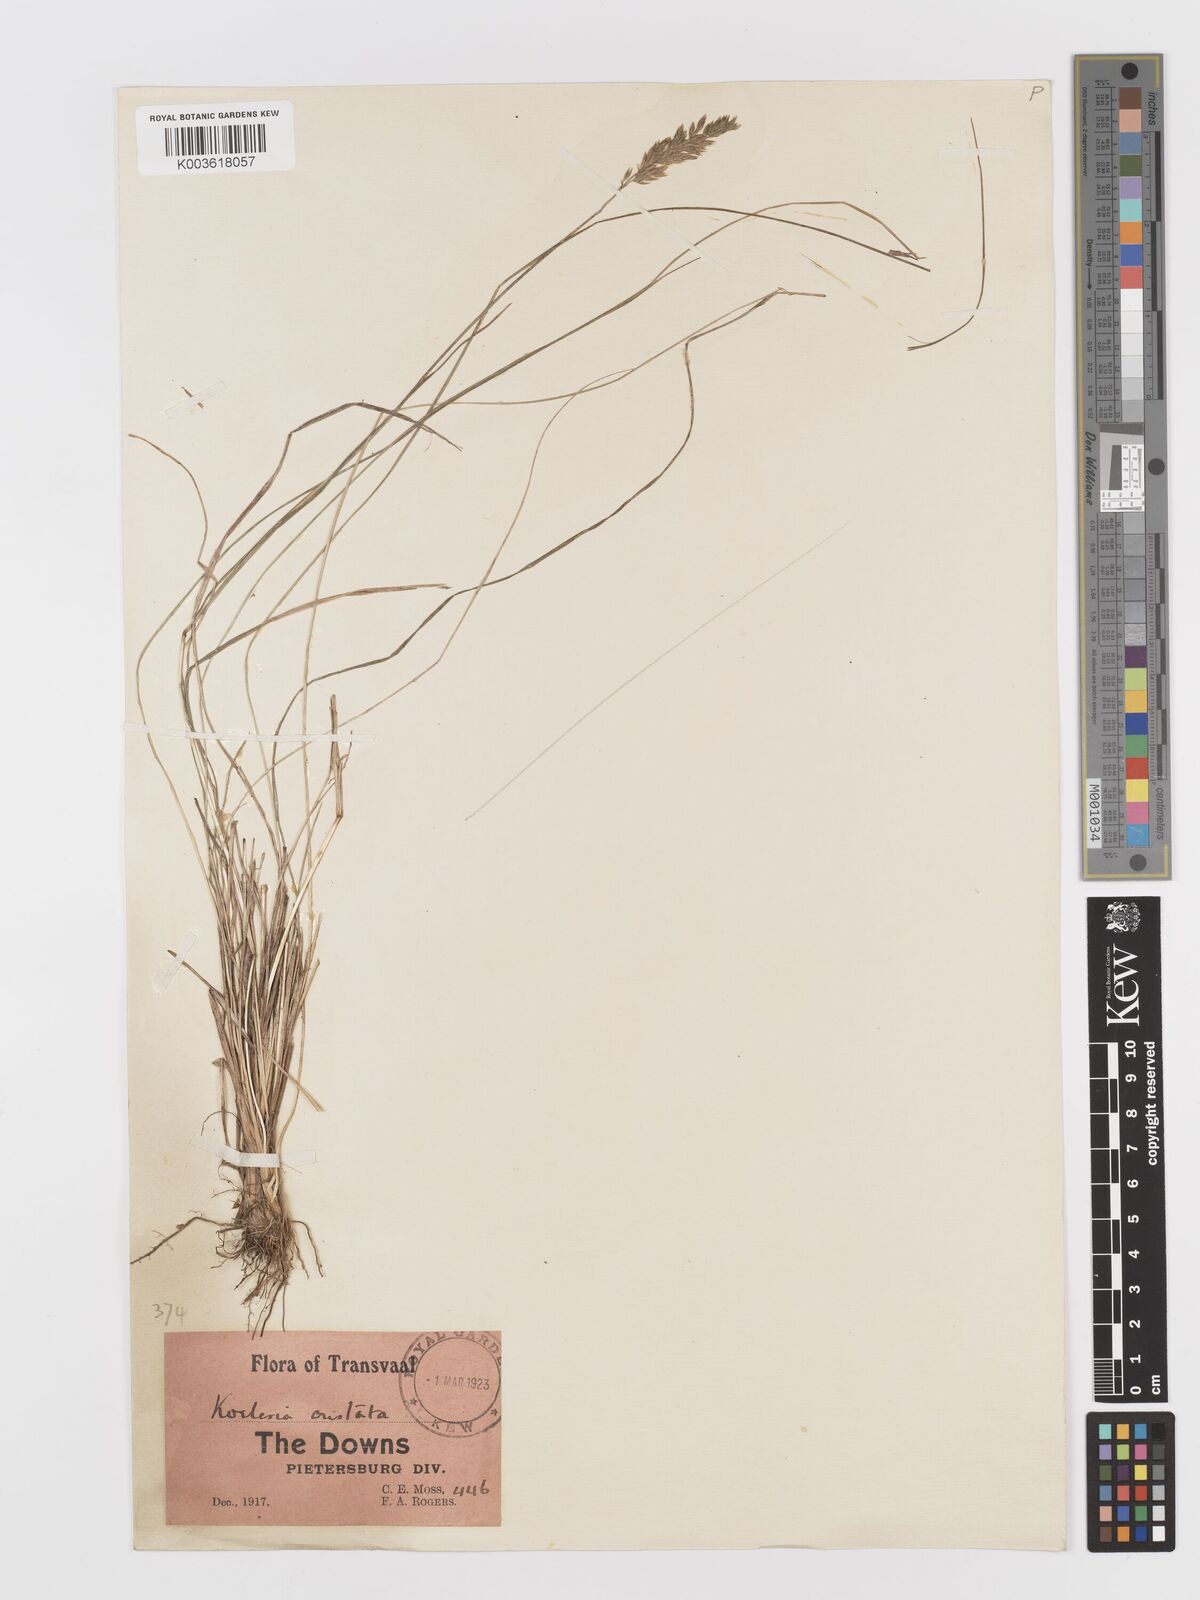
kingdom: Plantae
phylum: Tracheophyta
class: Liliopsida
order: Poales
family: Poaceae
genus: Koeleria
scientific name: Koeleria capensis
